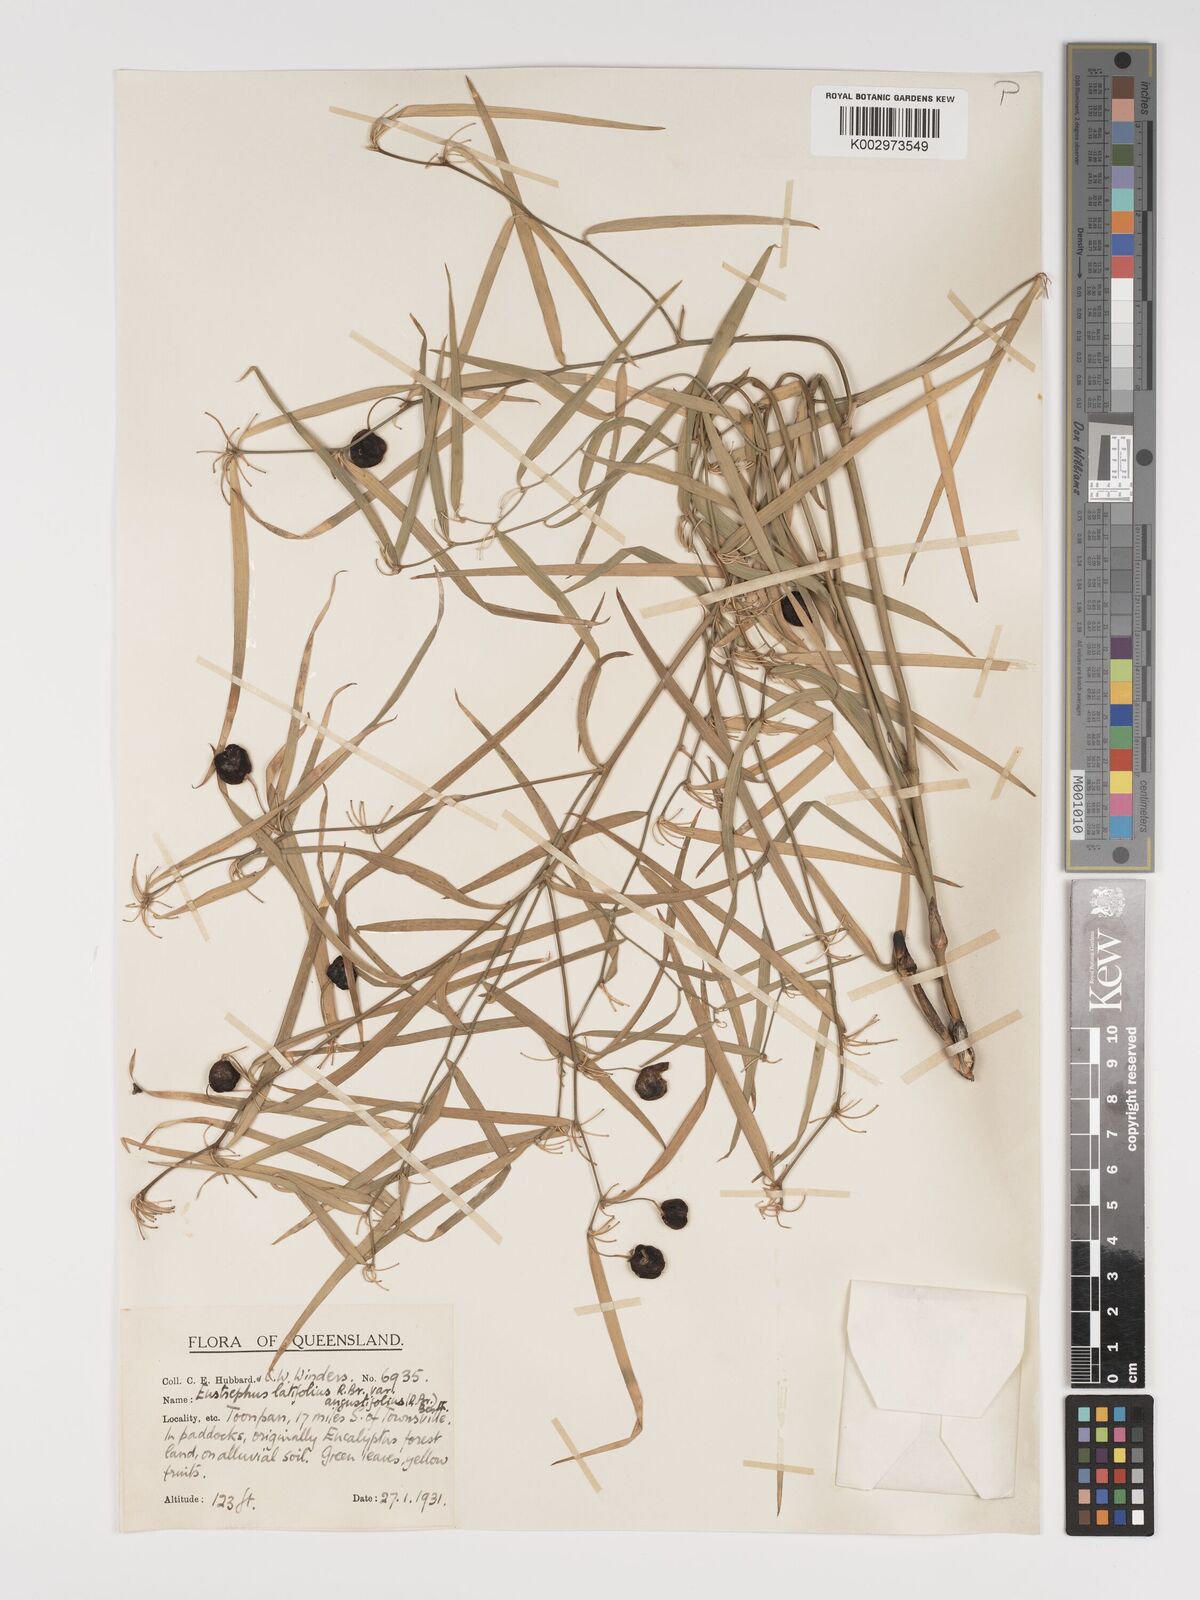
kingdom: Plantae
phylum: Tracheophyta
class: Liliopsida
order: Asparagales
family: Asparagaceae
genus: Eustrephus
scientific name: Eustrephus latifolius
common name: Orangevine
